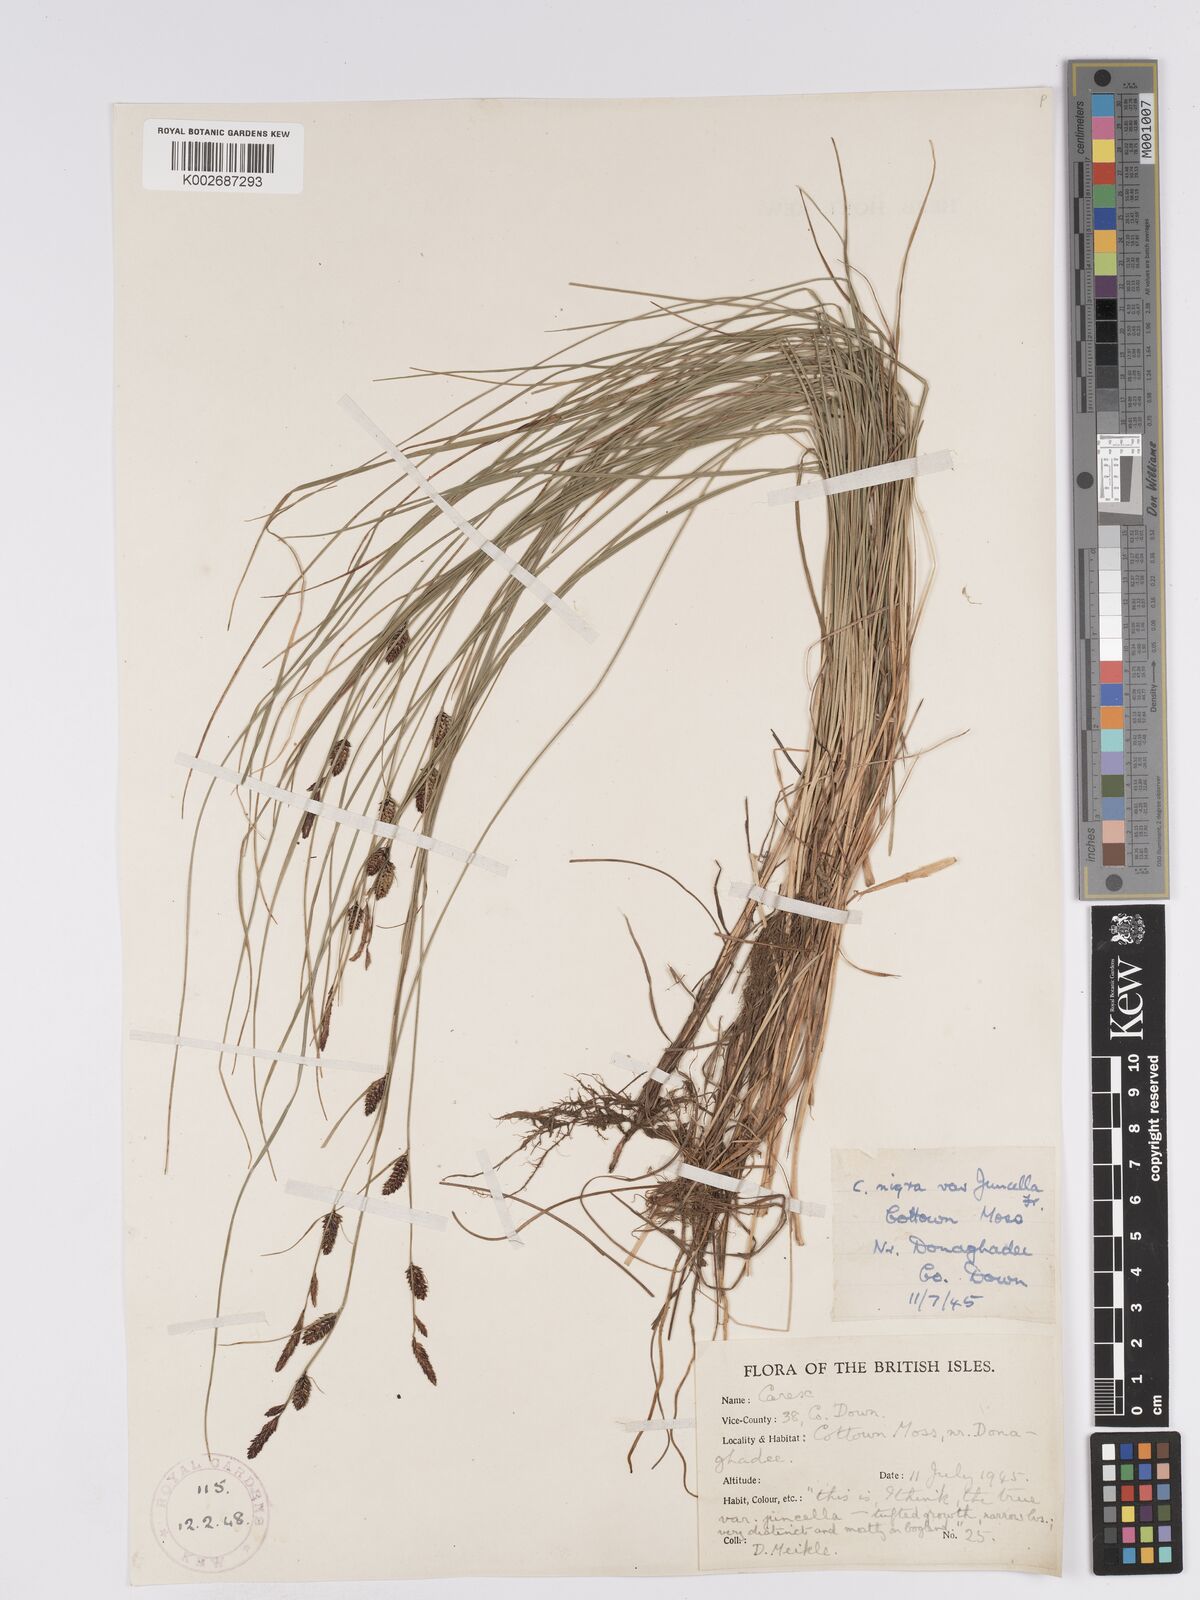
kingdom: Plantae
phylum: Tracheophyta
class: Liliopsida
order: Poales
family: Cyperaceae
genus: Carex
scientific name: Carex nigra
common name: Common sedge
